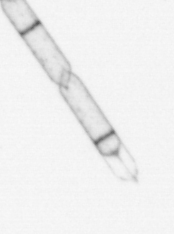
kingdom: Chromista
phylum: Ochrophyta
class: Bacillariophyceae
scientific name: Bacillariophyceae
